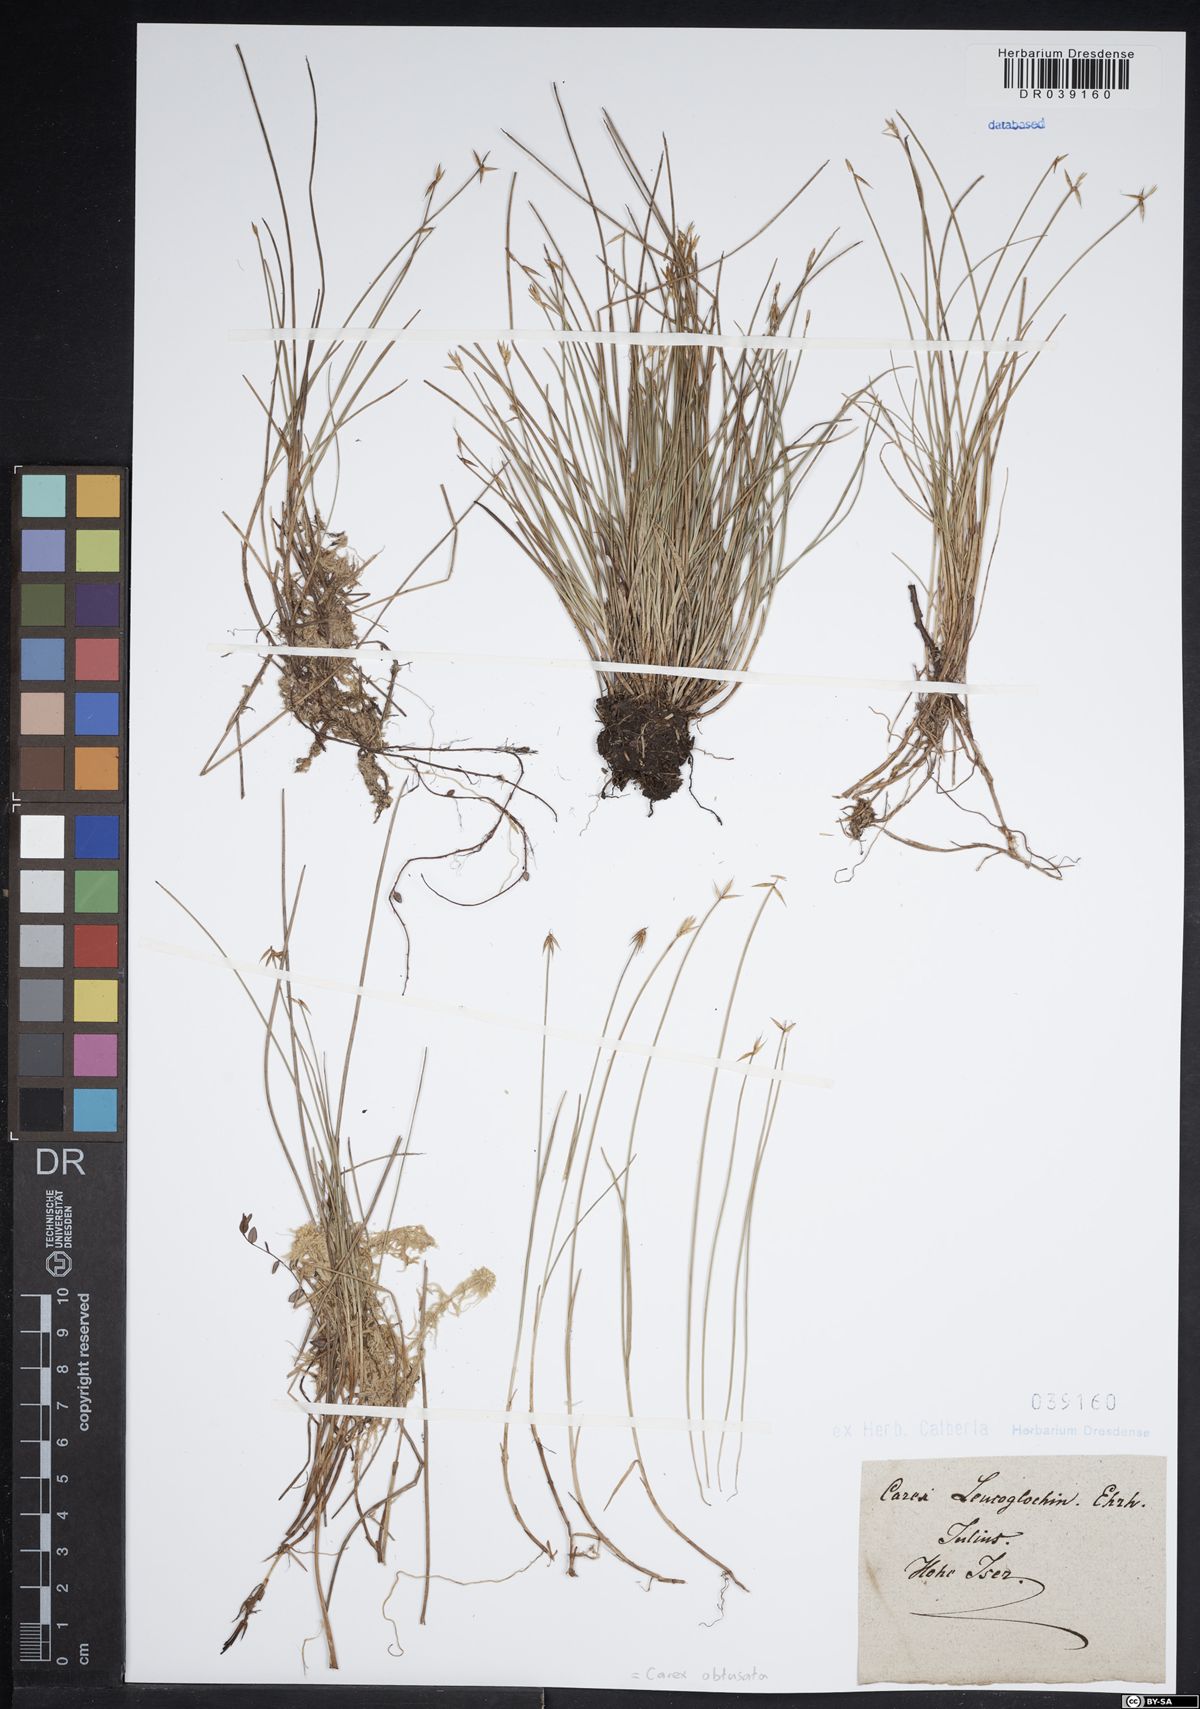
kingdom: Plantae
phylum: Tracheophyta
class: Liliopsida
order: Poales
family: Cyperaceae
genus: Carex
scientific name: Carex obtusata
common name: Blunt sedge
